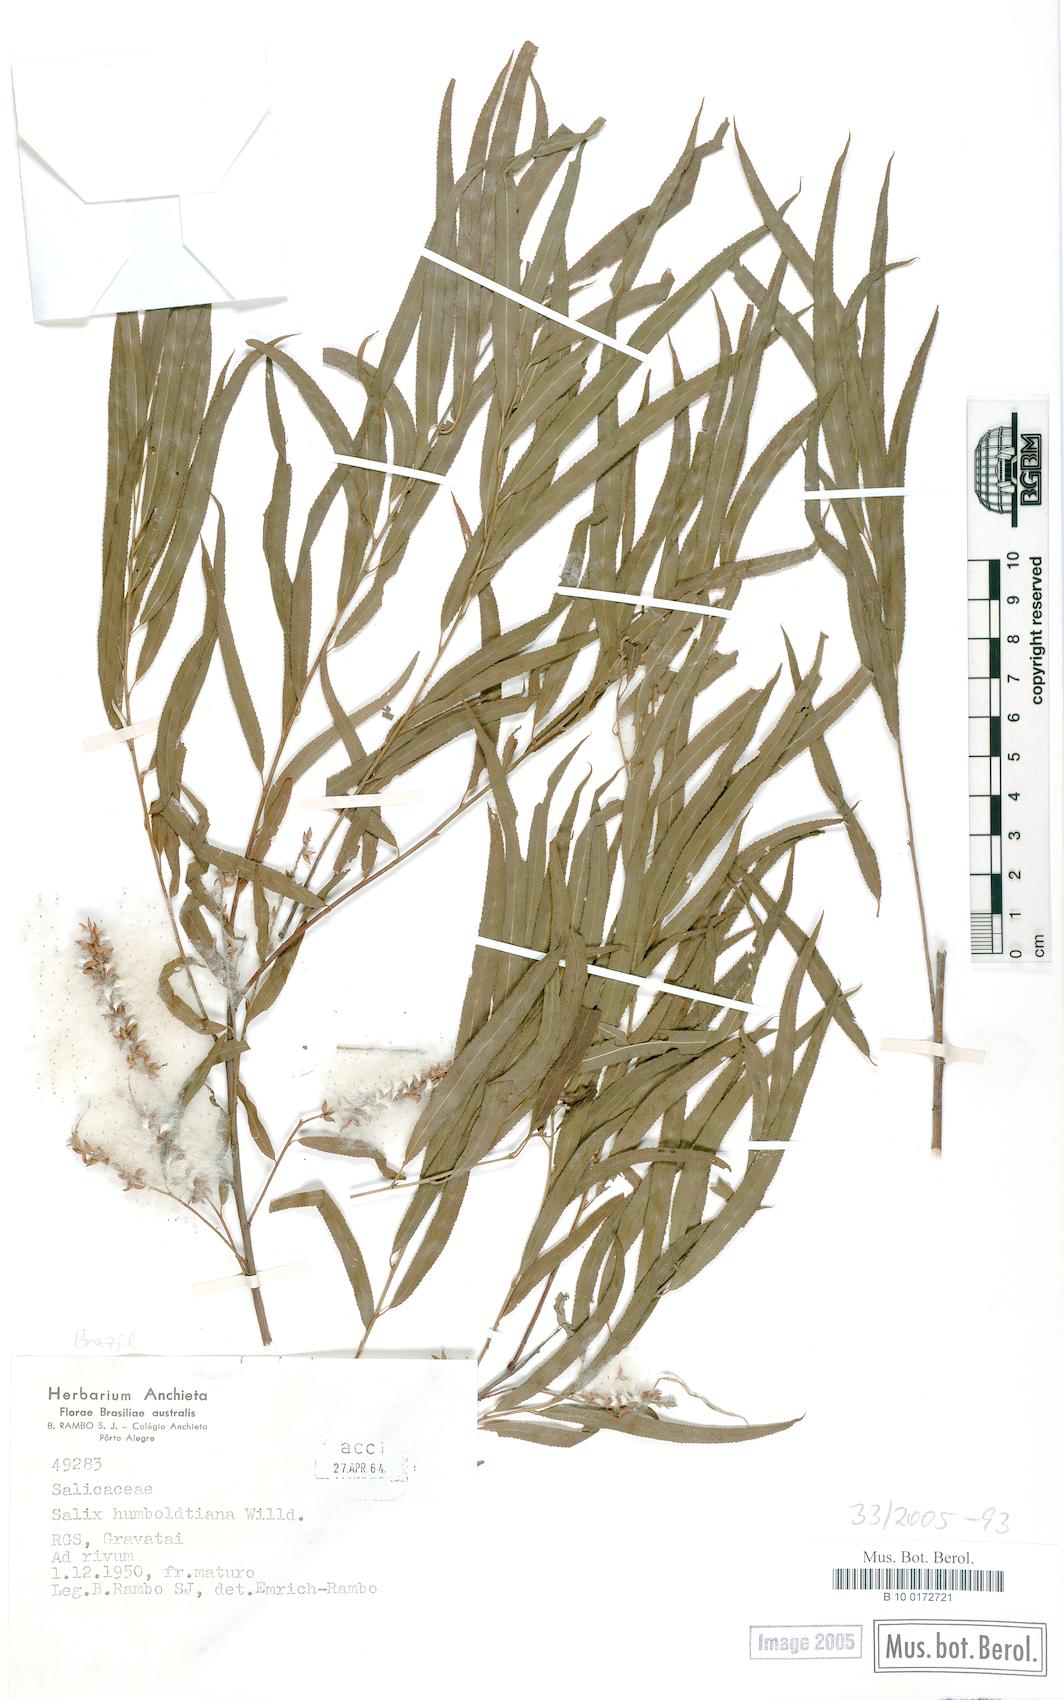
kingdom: Plantae
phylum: Tracheophyta
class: Magnoliopsida
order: Malpighiales
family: Salicaceae
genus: Salix
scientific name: Salix humboldtiana
